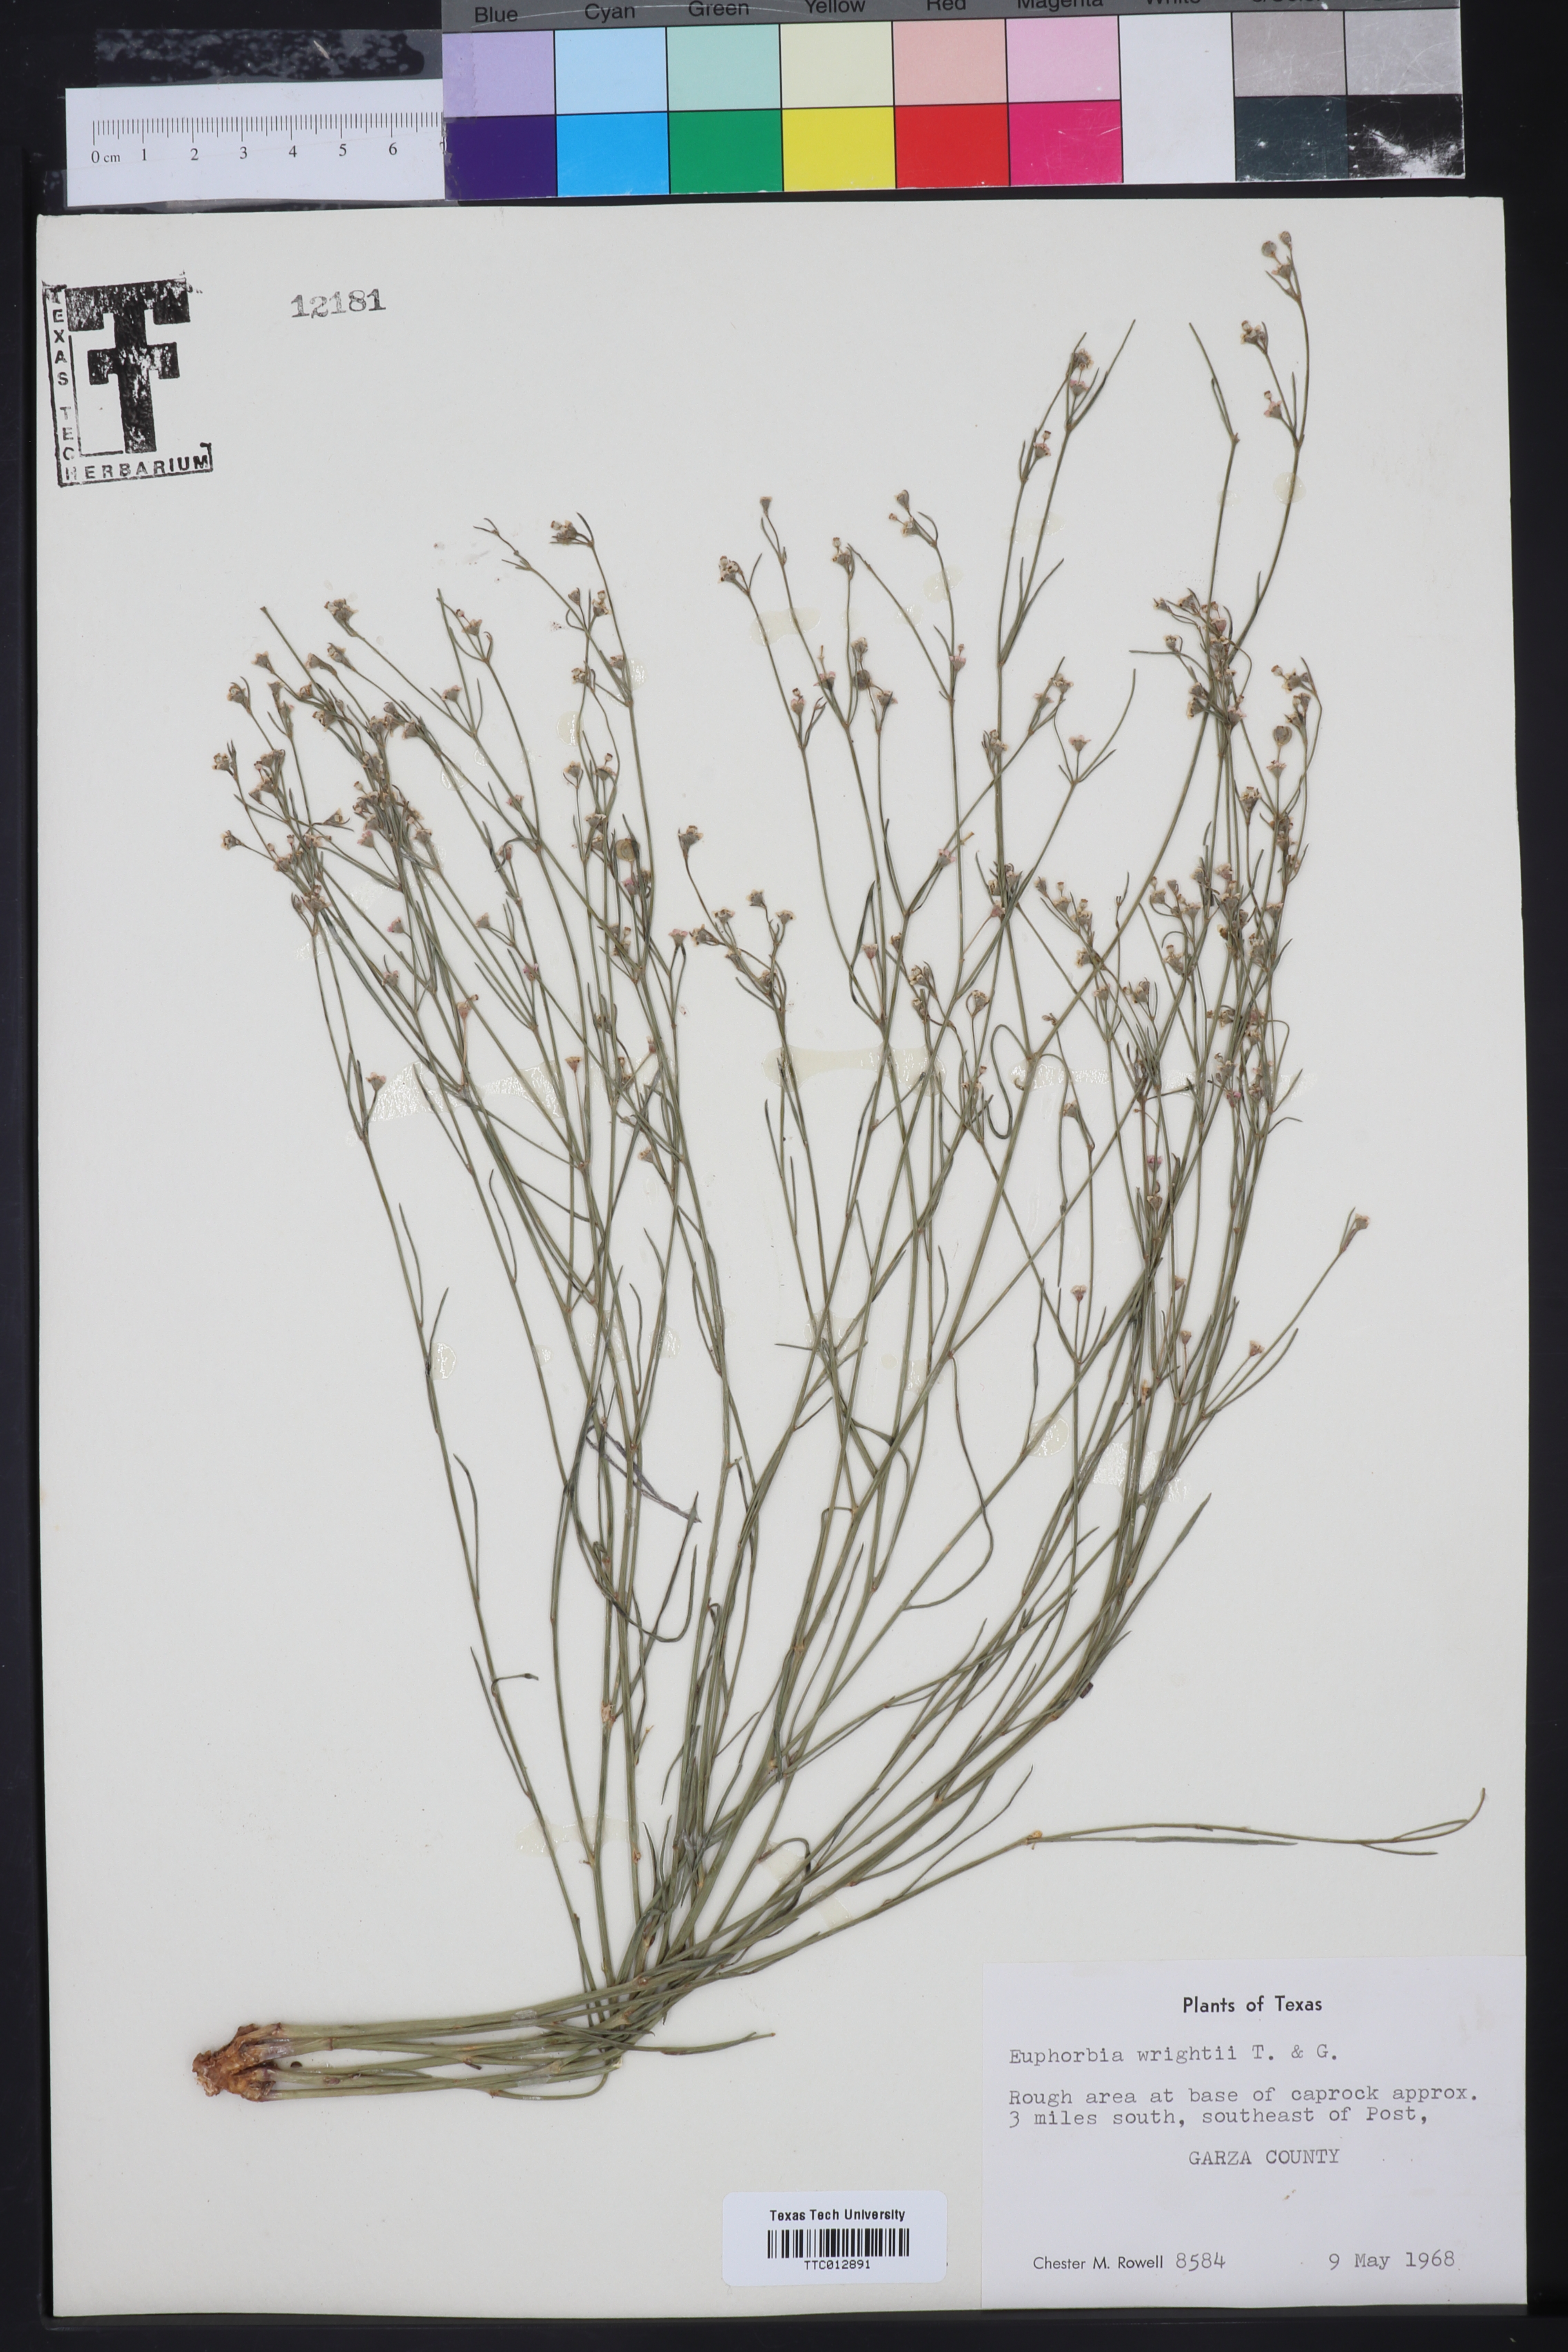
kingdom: Plantae
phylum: Tracheophyta
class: Magnoliopsida
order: Malpighiales
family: Euphorbiaceae
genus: Euphorbia
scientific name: Euphorbia wrightii
